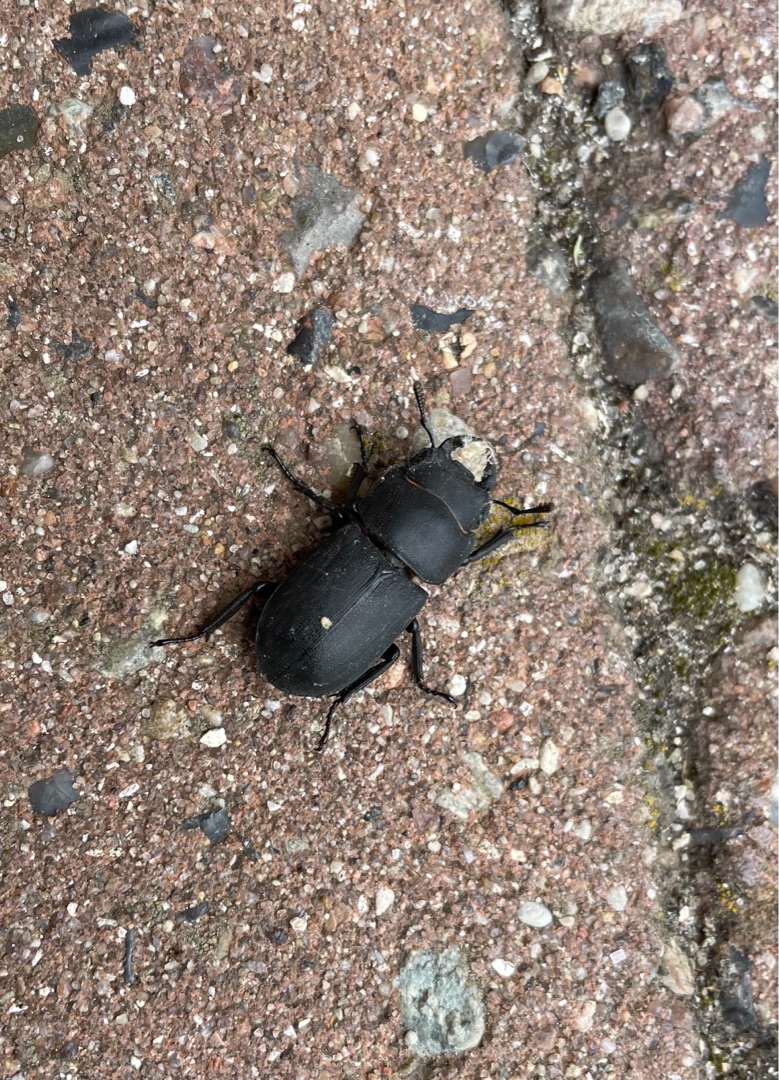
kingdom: Animalia
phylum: Arthropoda
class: Insecta
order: Coleoptera
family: Lucanidae
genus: Dorcus
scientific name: Dorcus parallelipipedus
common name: Bøghjort
